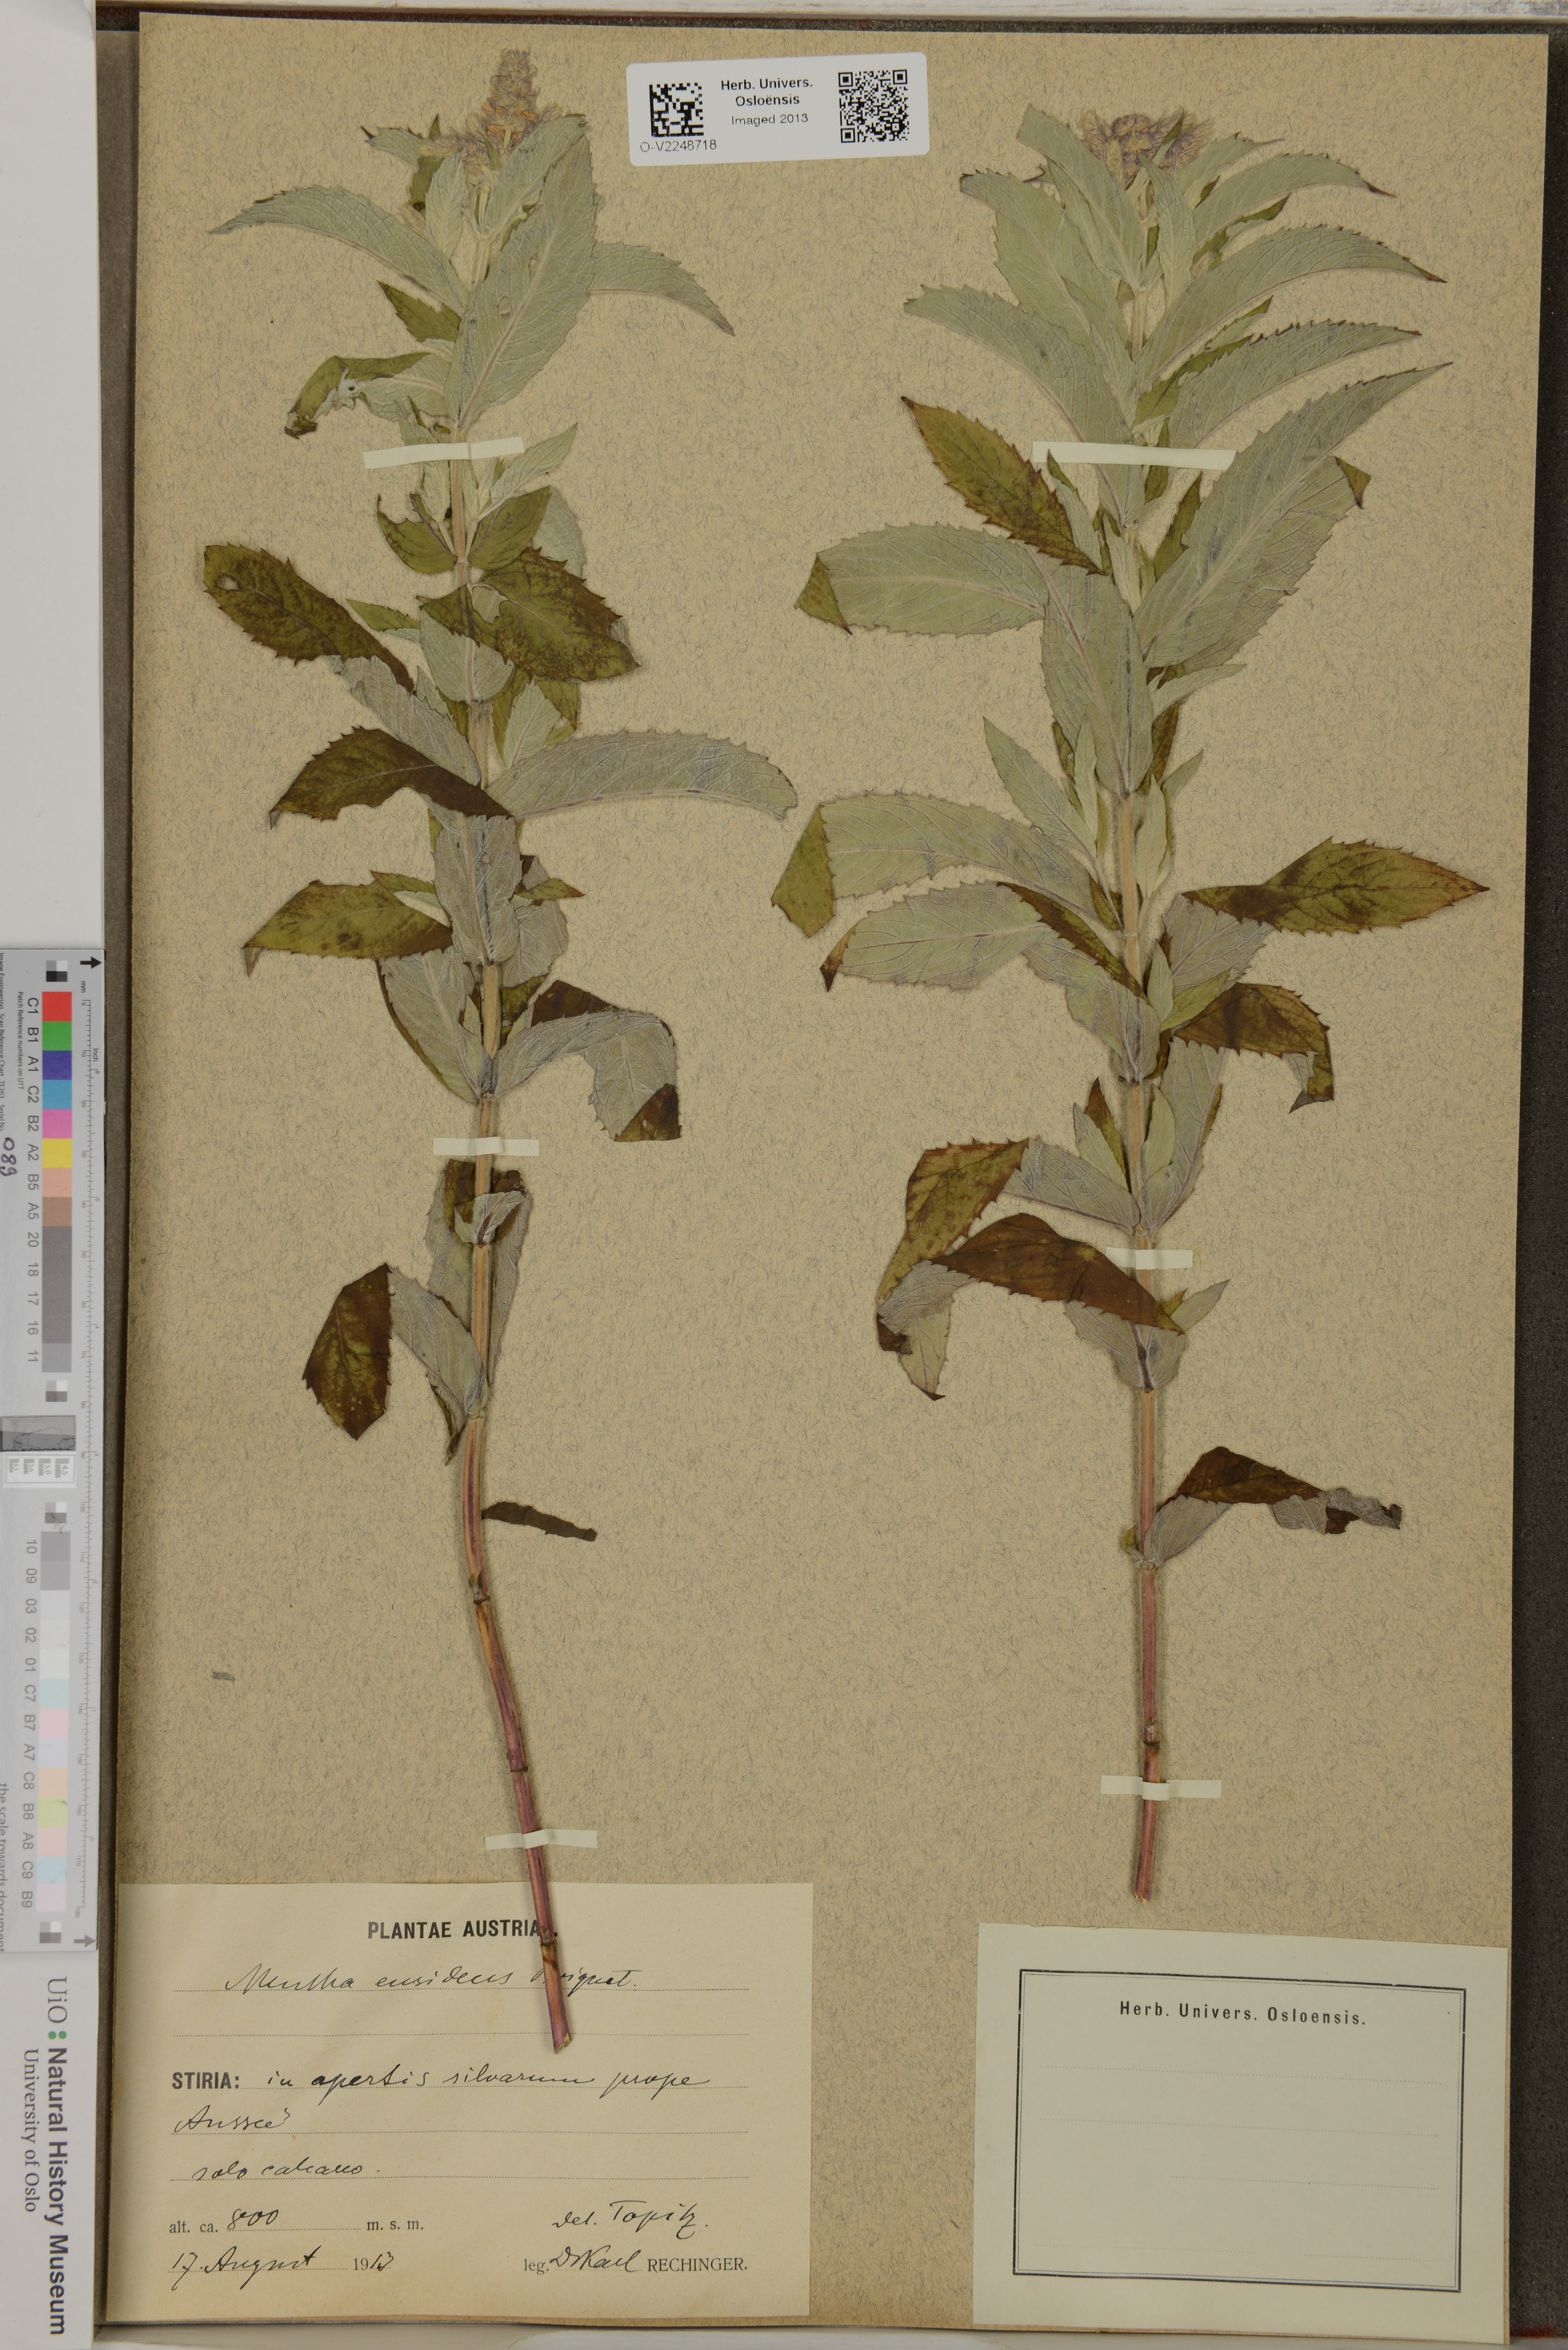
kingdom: Plantae
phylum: Tracheophyta
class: Magnoliopsida
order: Lamiales
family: Lamiaceae
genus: Mentha
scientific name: Mentha longifolia
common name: Horse mint
